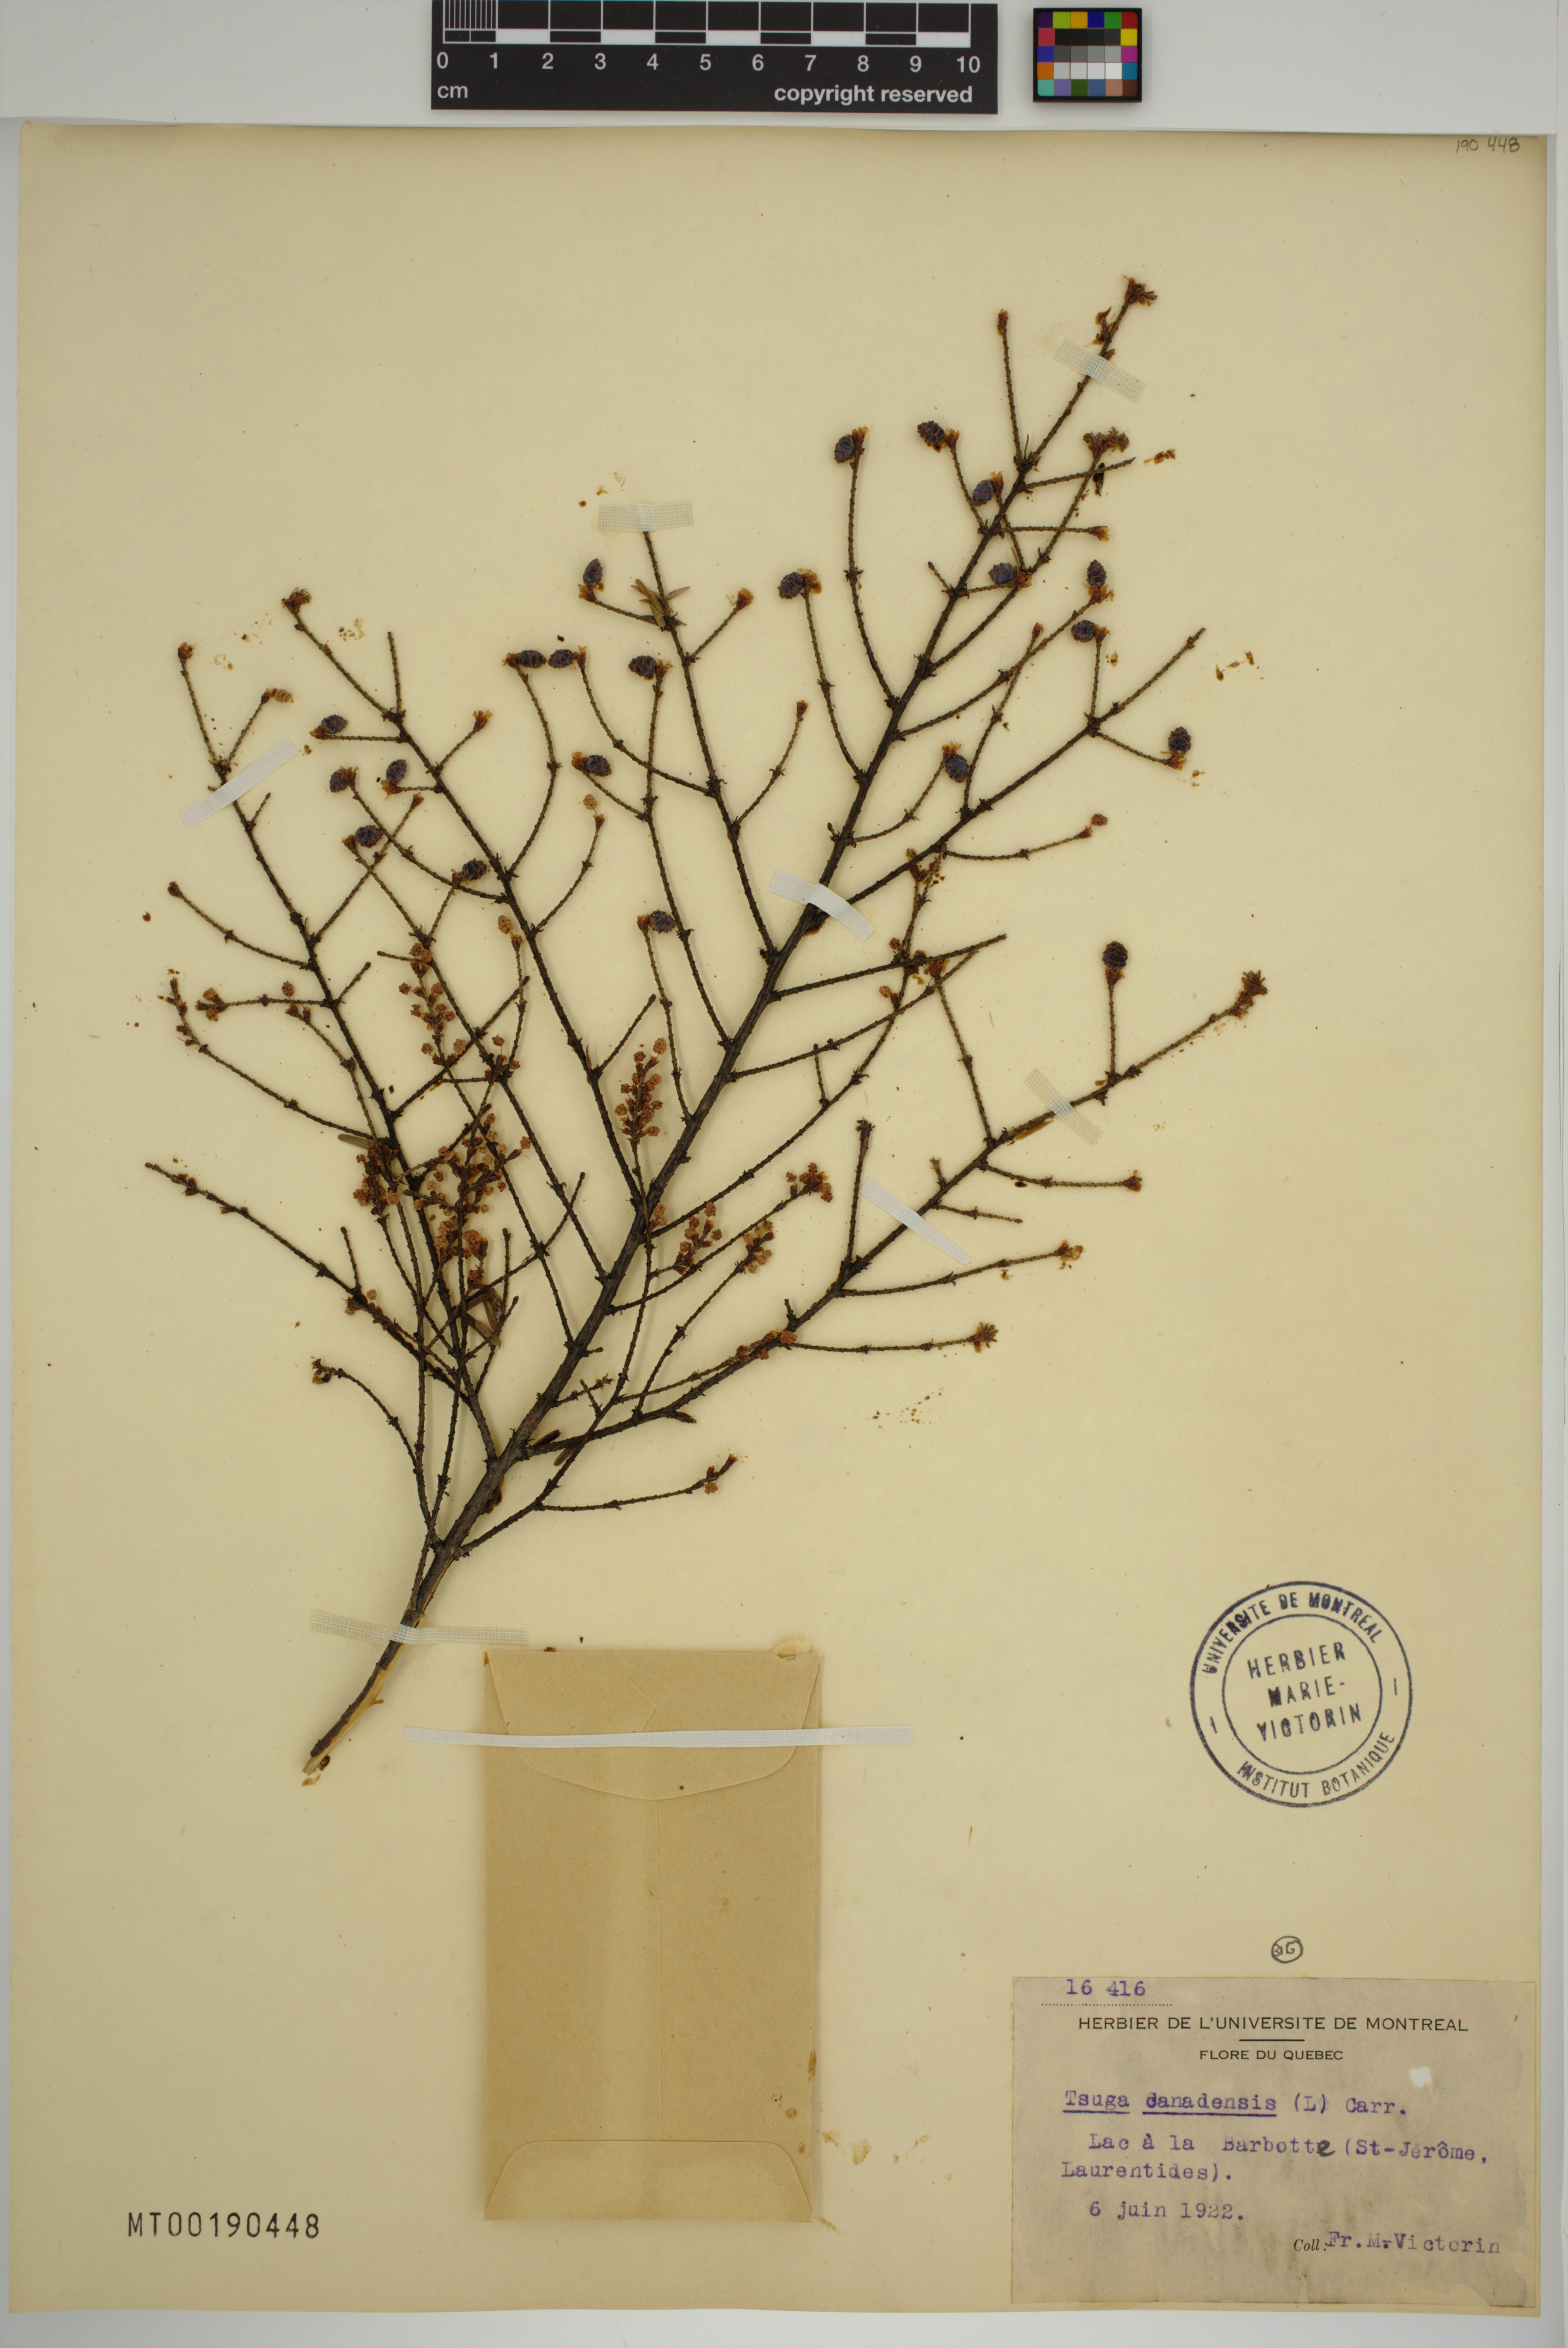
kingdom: Plantae
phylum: Tracheophyta
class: Pinopsida
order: Pinales
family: Pinaceae
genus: Tsuga
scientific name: Tsuga canadensis
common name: Eastern hemlock
